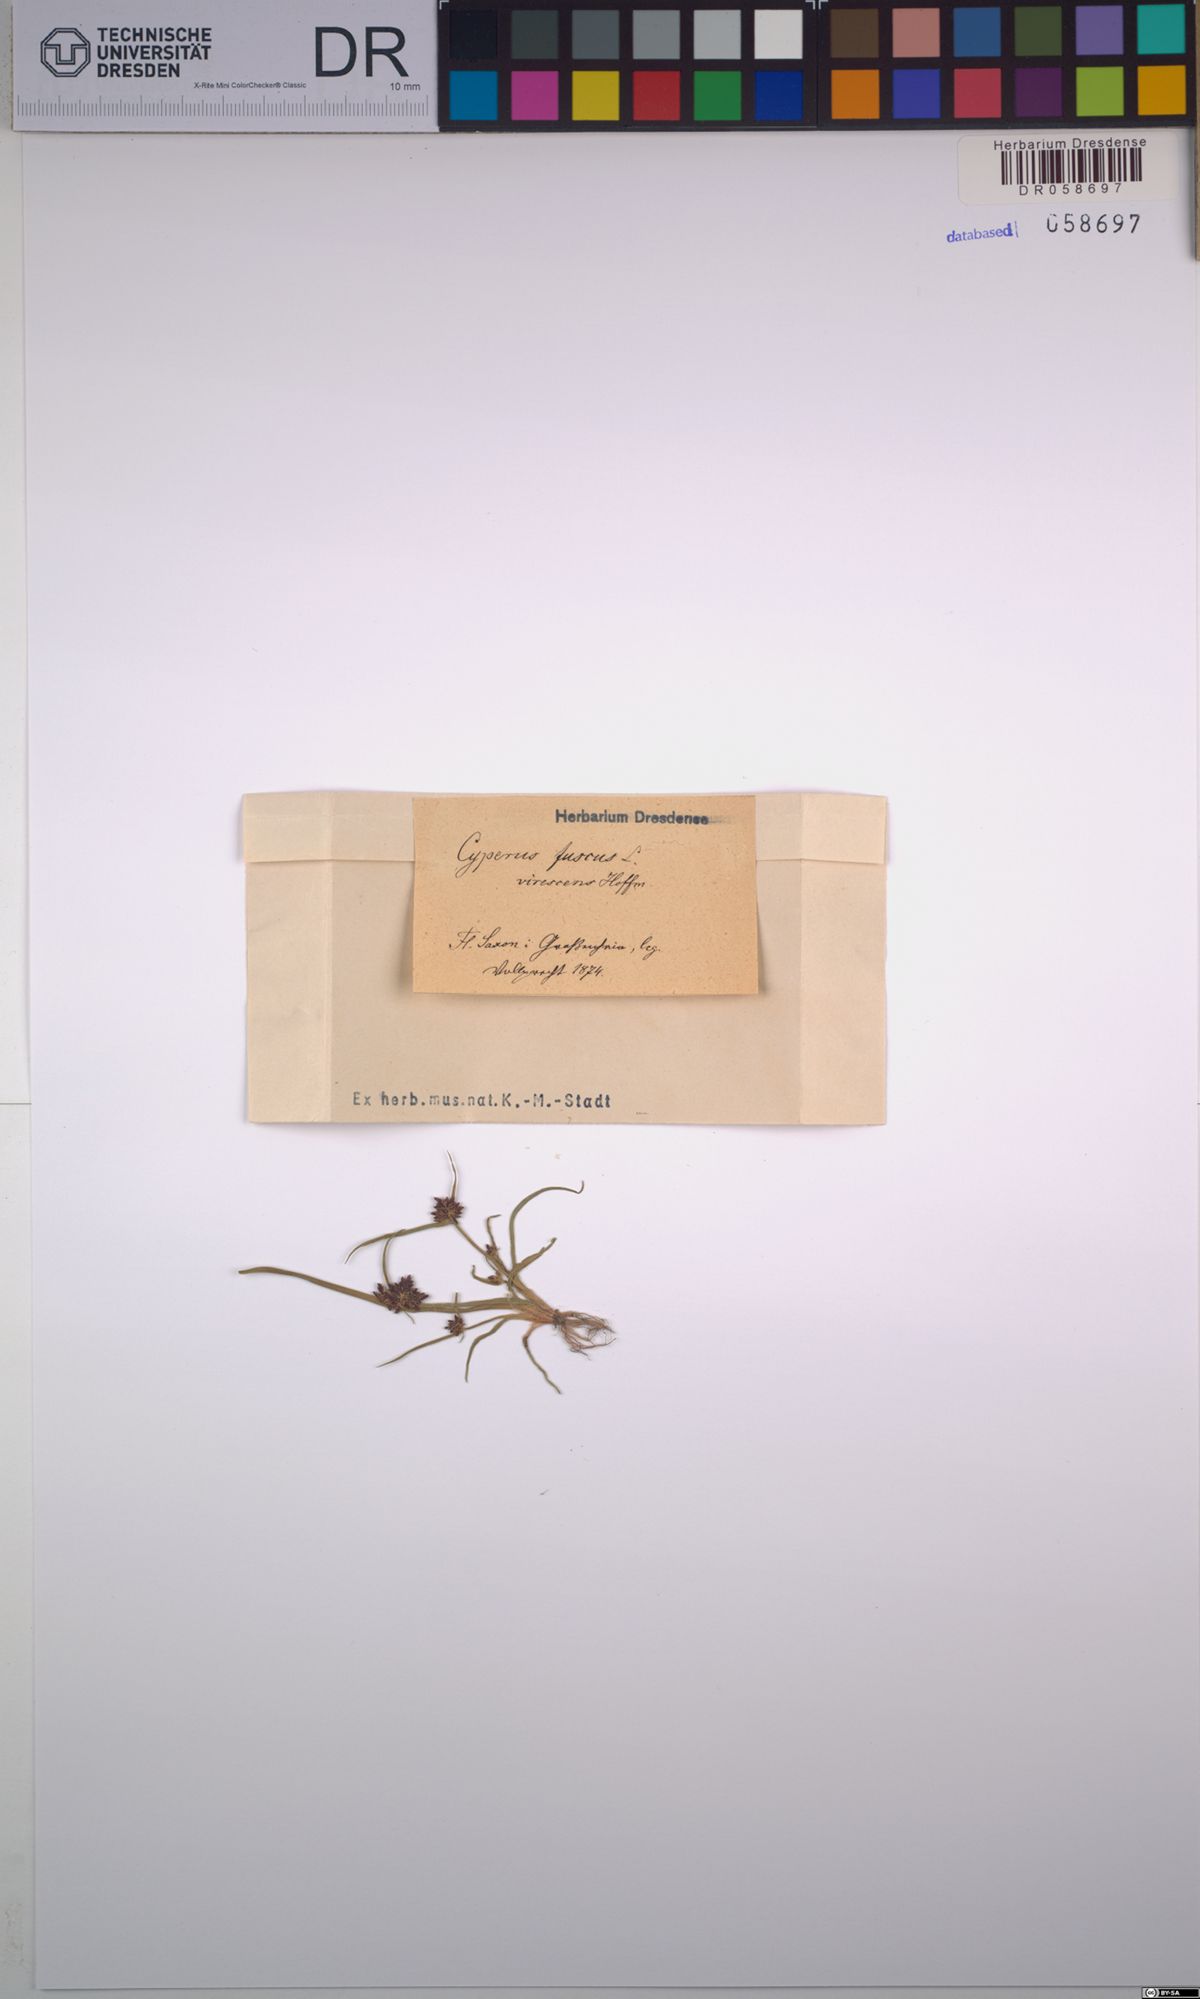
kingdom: Plantae
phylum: Tracheophyta
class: Liliopsida
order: Poales
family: Cyperaceae
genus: Cyperus
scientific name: Cyperus fuscus
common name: Brown galingale
